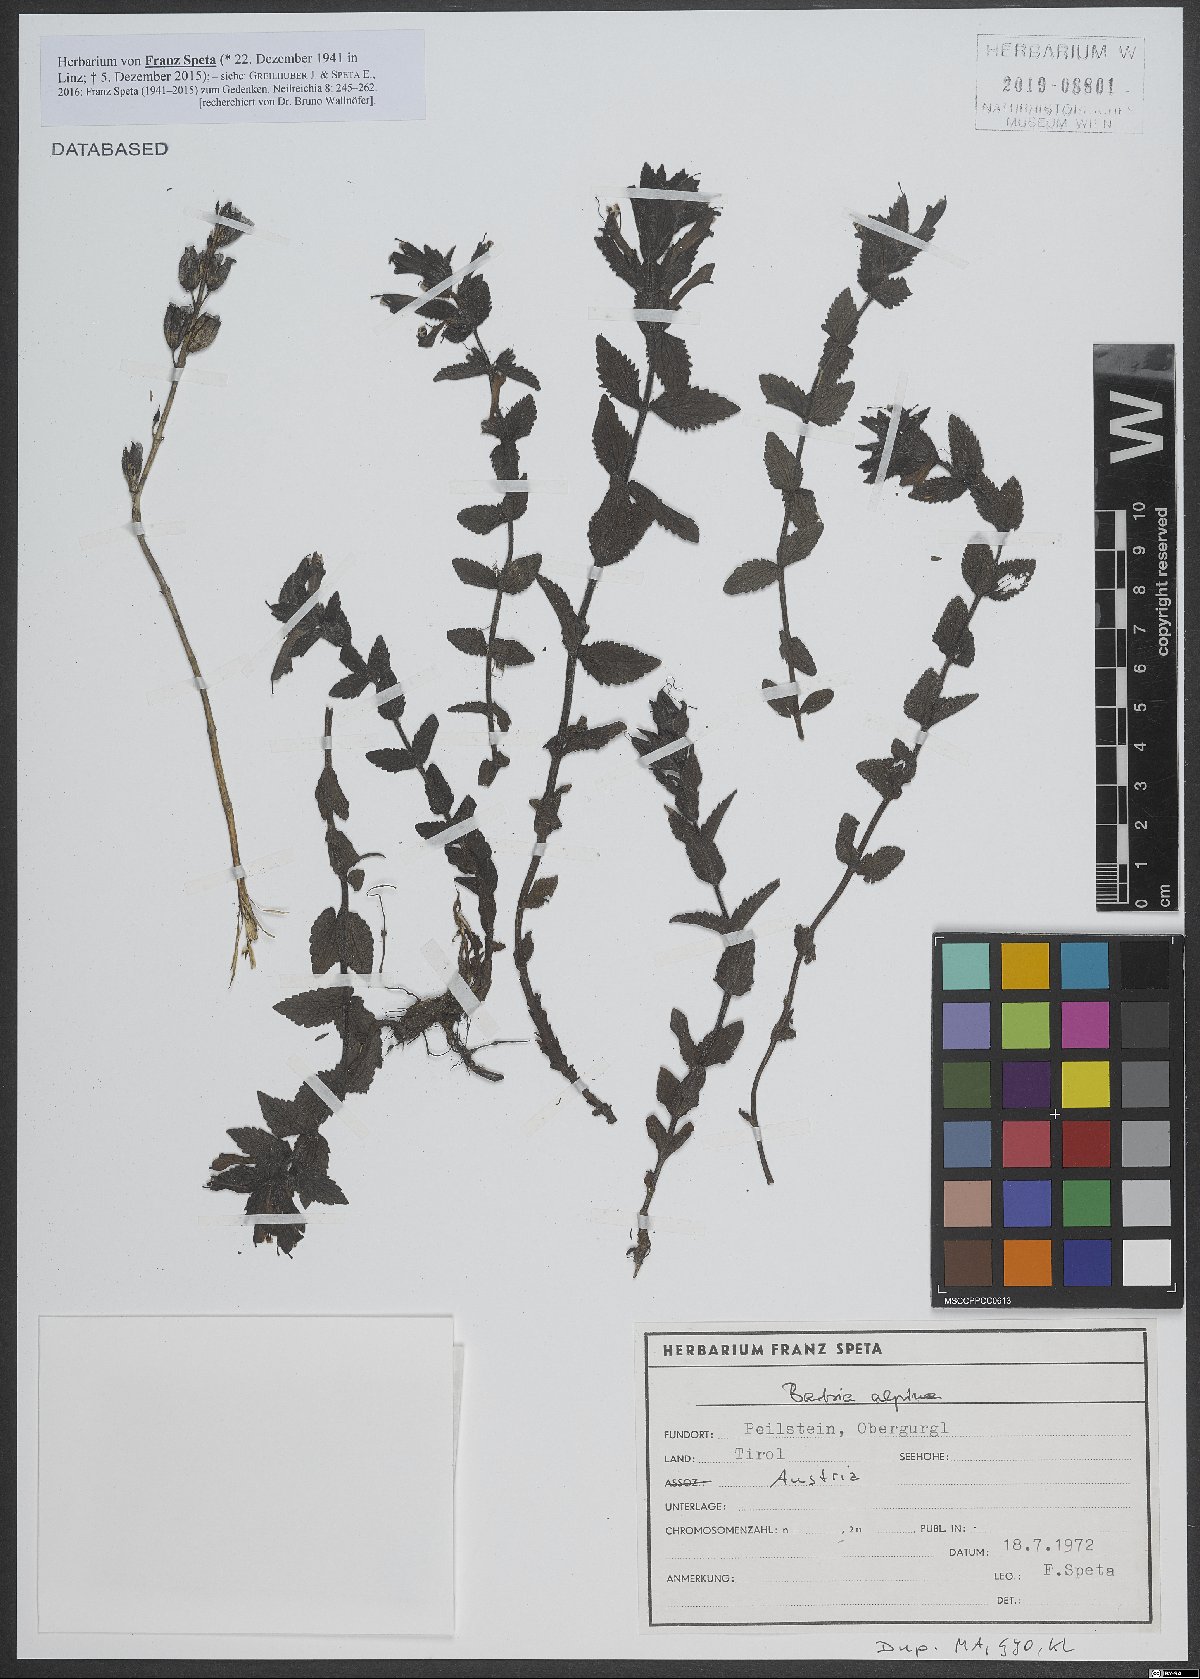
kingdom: Plantae
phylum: Tracheophyta
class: Magnoliopsida
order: Lamiales
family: Orobanchaceae
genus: Bartsia
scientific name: Bartsia alpina
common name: Alpine bartsia
